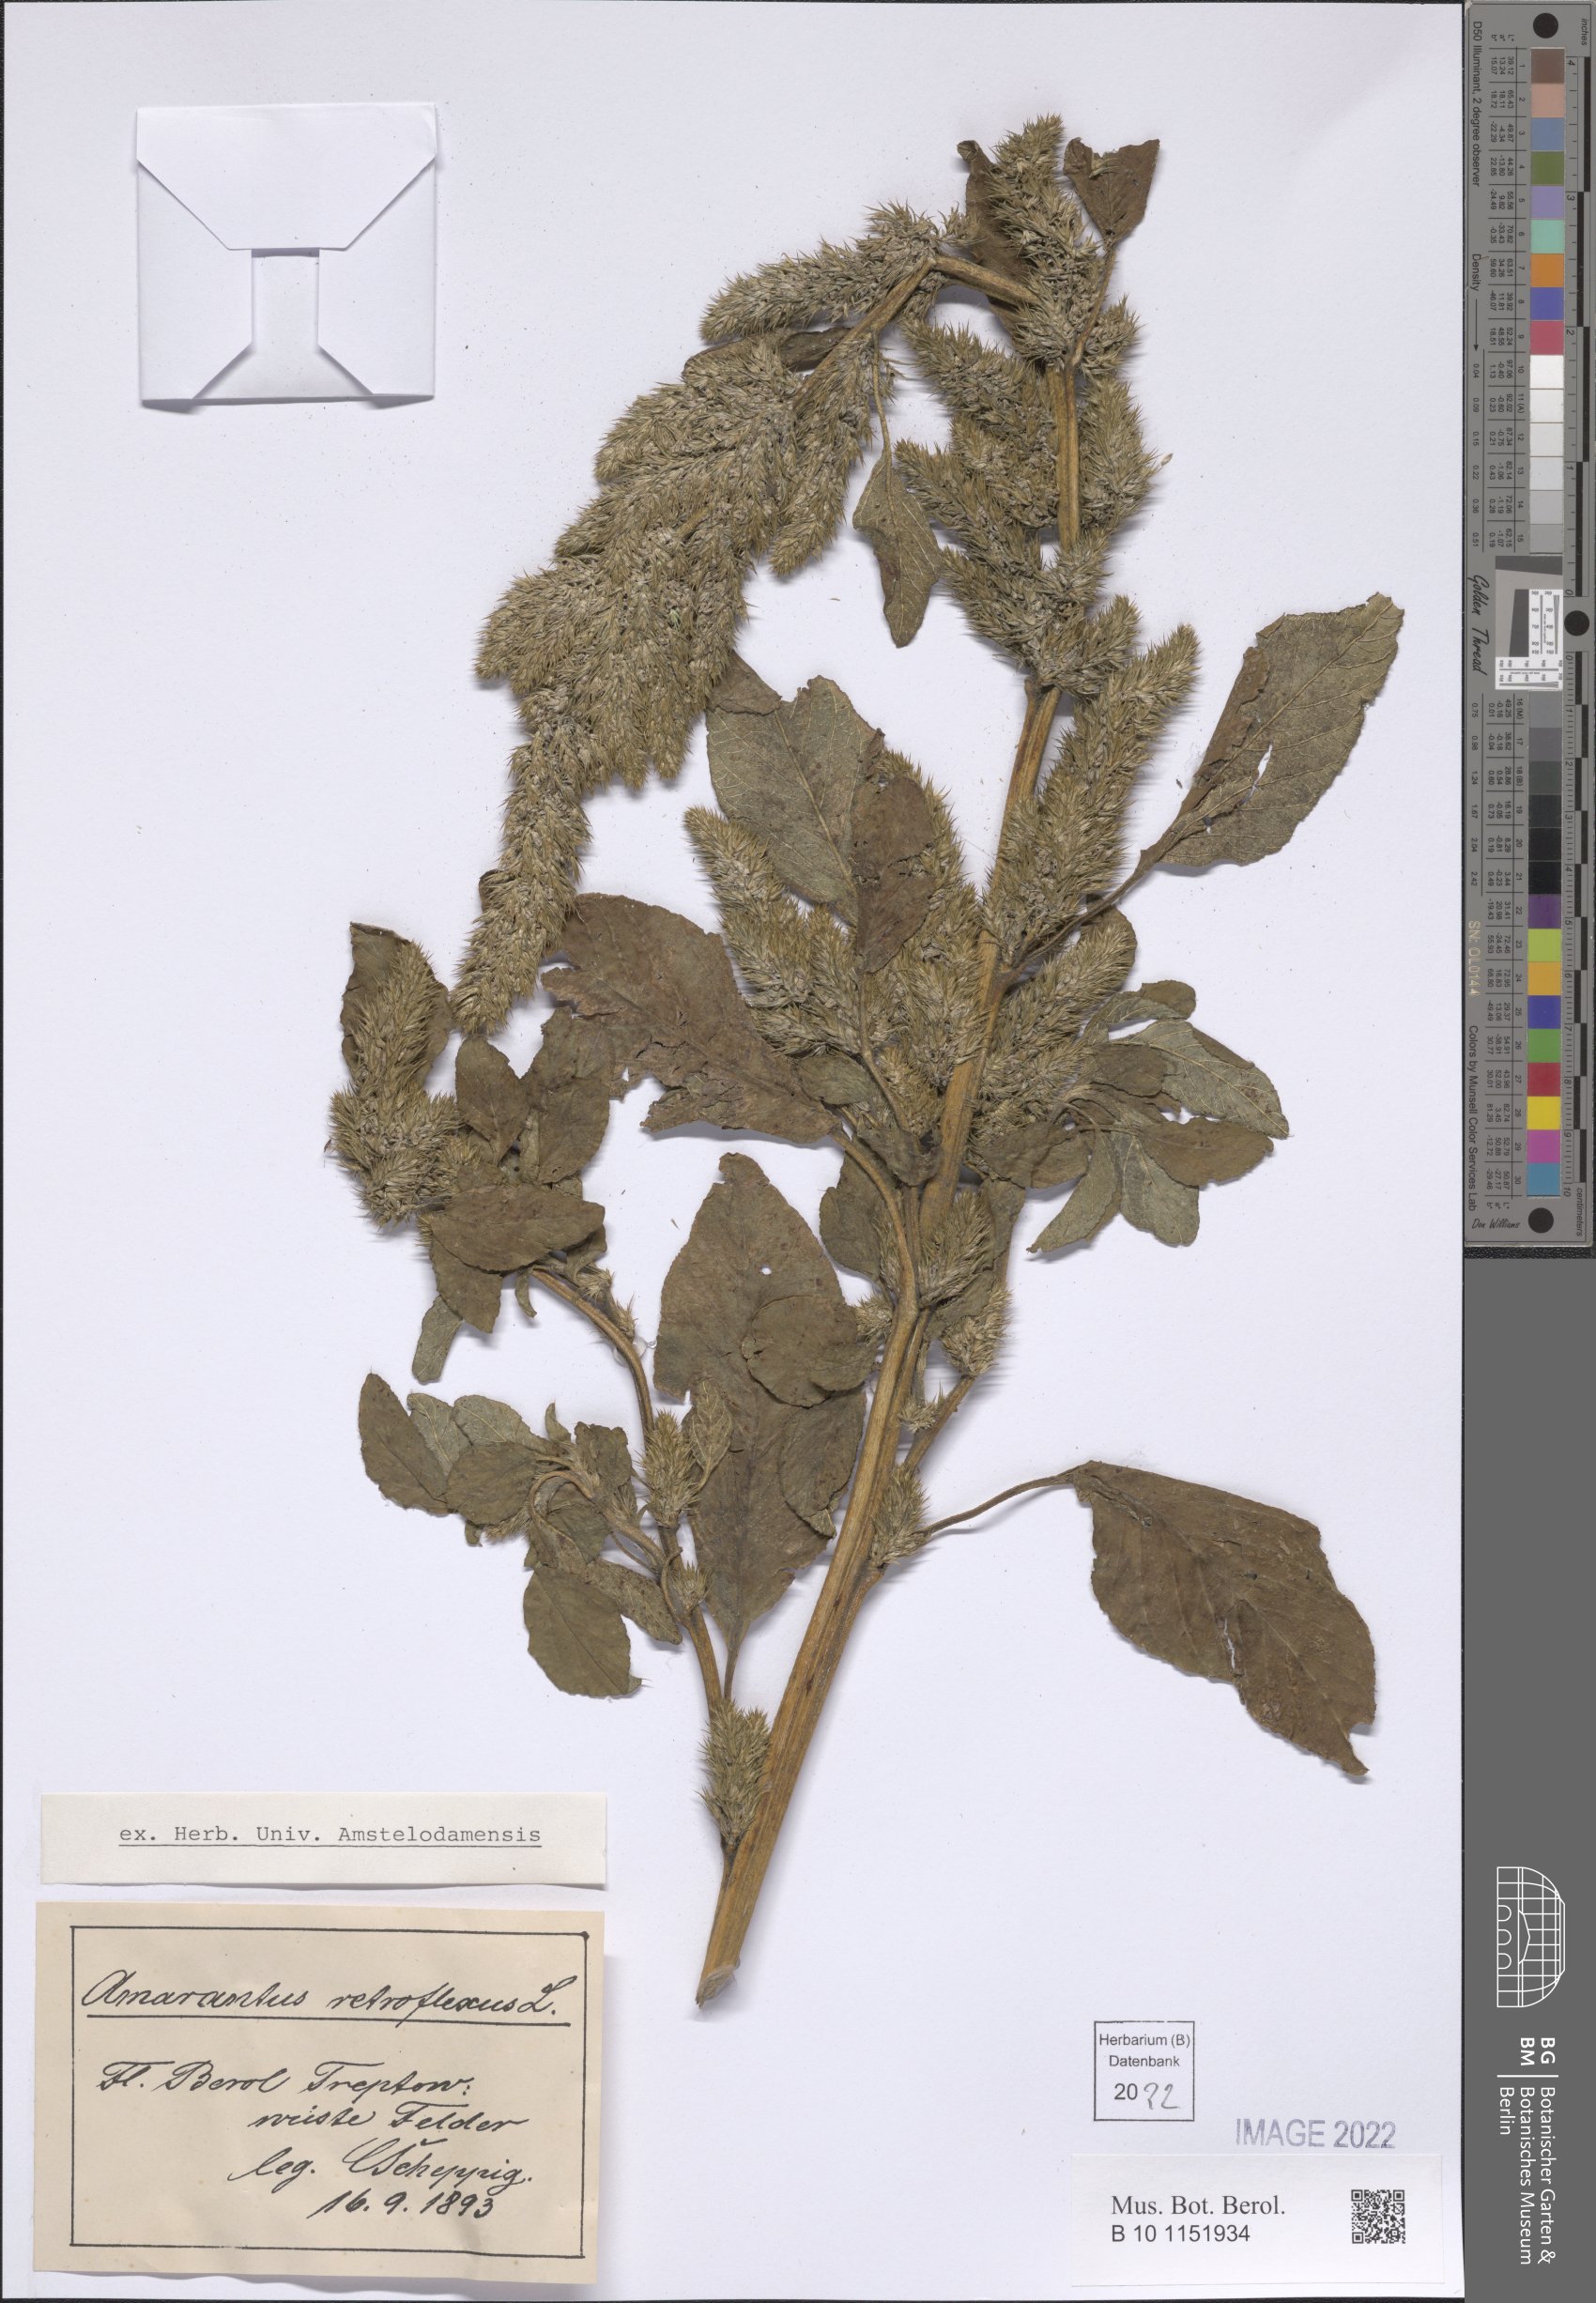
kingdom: Plantae
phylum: Tracheophyta
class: Magnoliopsida
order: Caryophyllales
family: Amaranthaceae
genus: Amaranthus
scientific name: Amaranthus retroflexus
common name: Redroot amaranth
